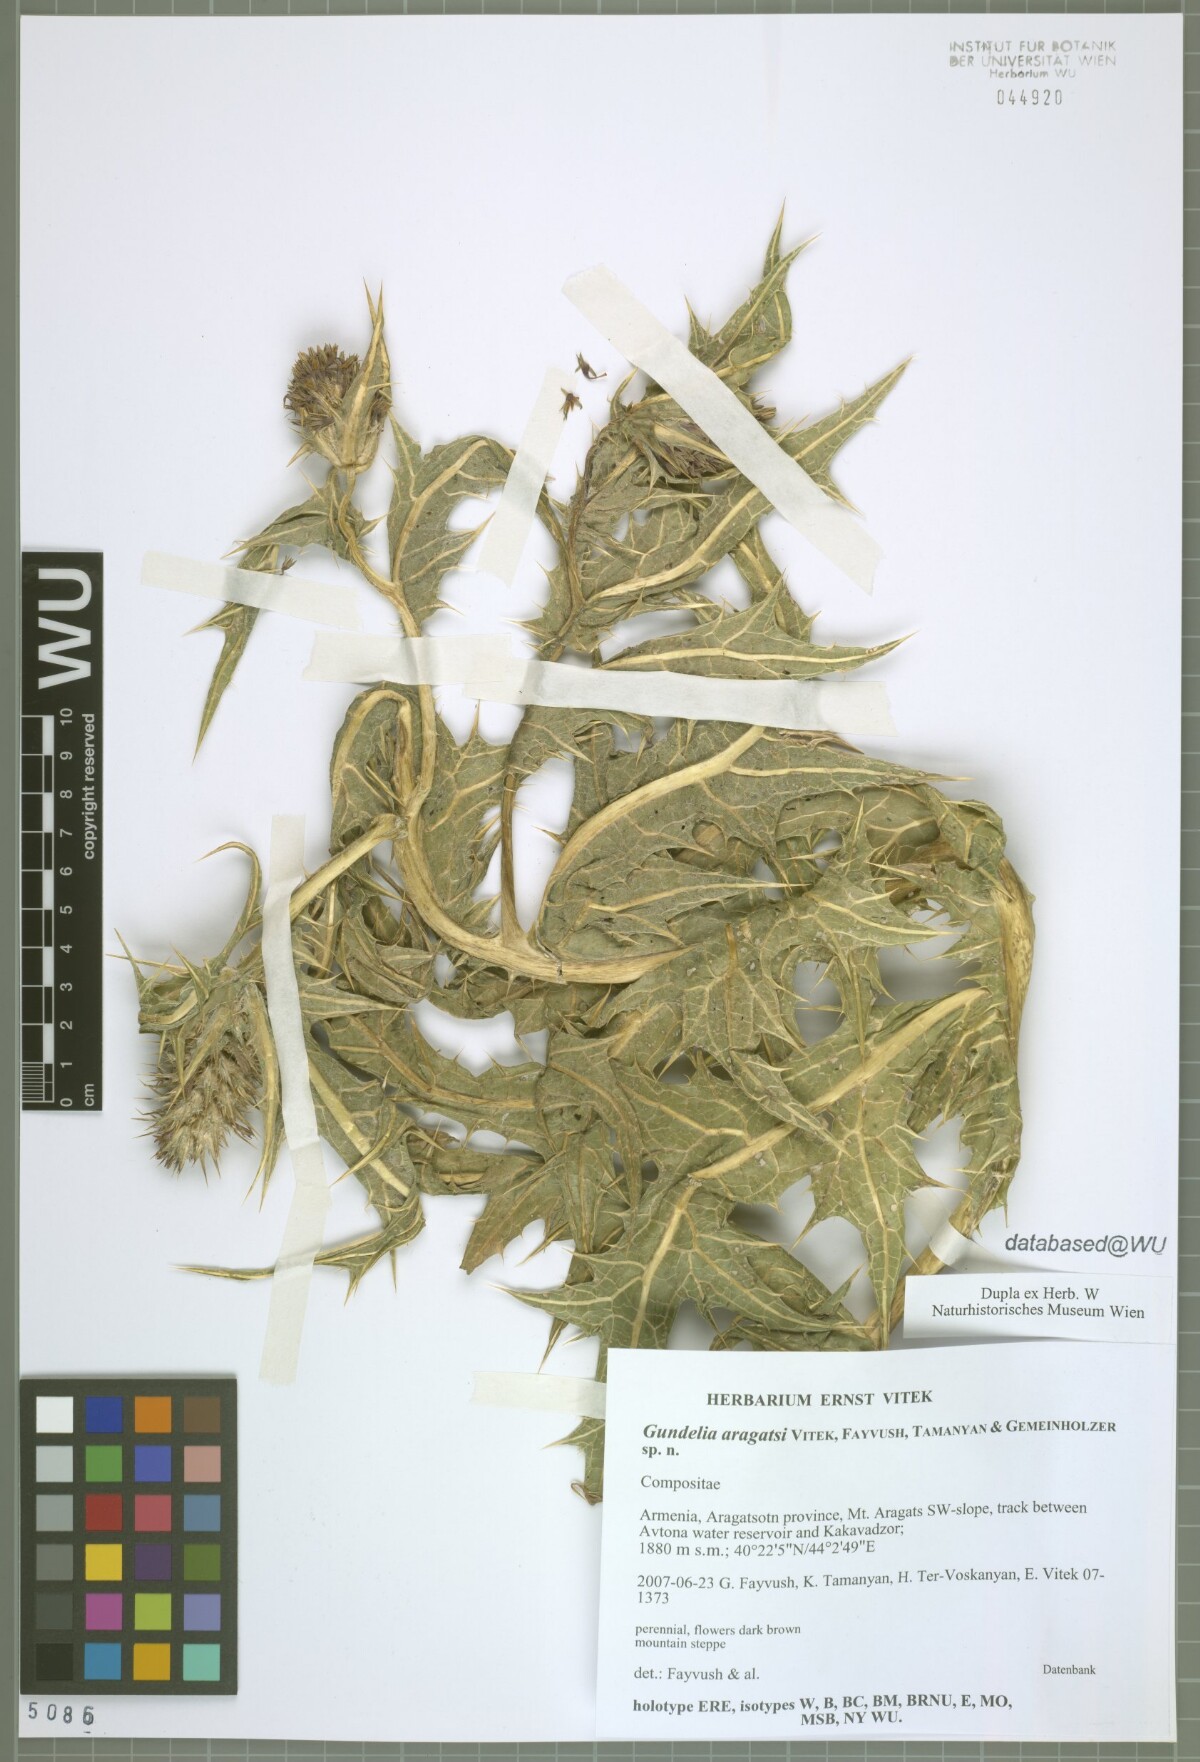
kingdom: Plantae
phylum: Tracheophyta
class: Magnoliopsida
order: Asterales
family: Asteraceae
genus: Gundelia
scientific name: Gundelia aragatsi
